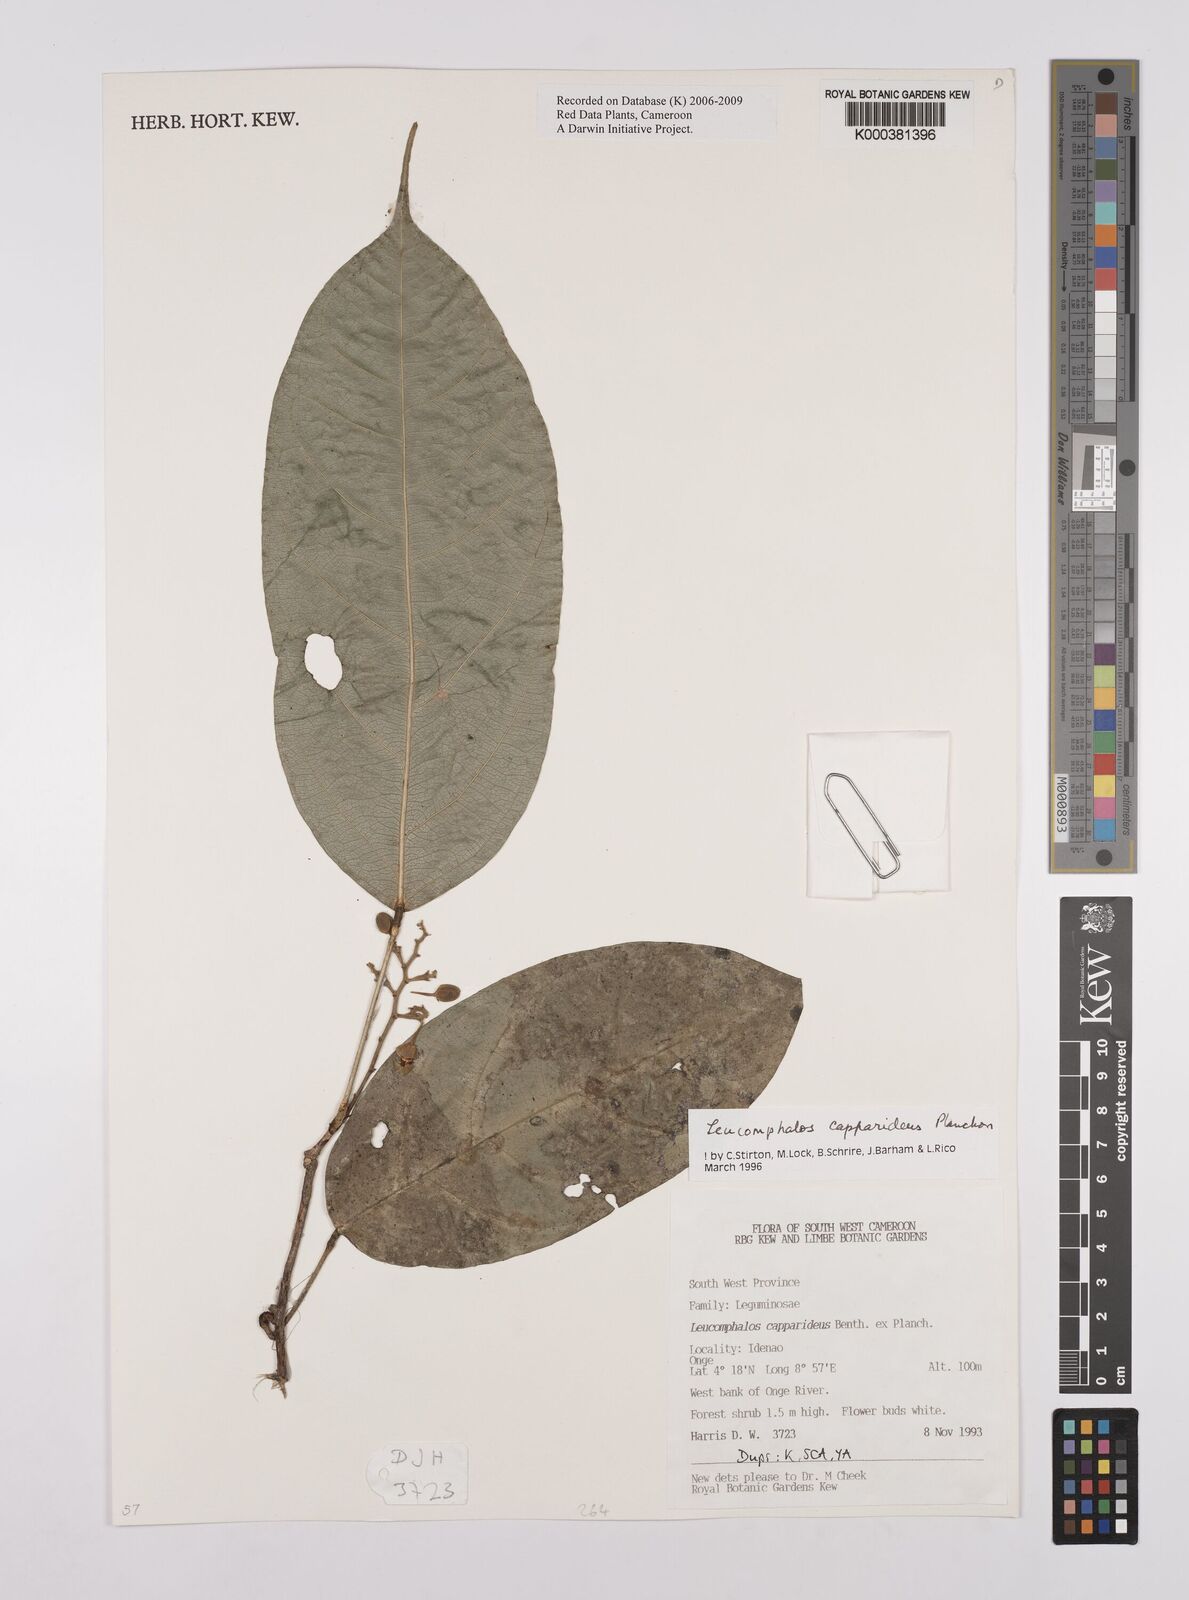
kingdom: Plantae
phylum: Tracheophyta
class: Magnoliopsida
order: Fabales
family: Fabaceae
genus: Leucomphalos
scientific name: Leucomphalos
